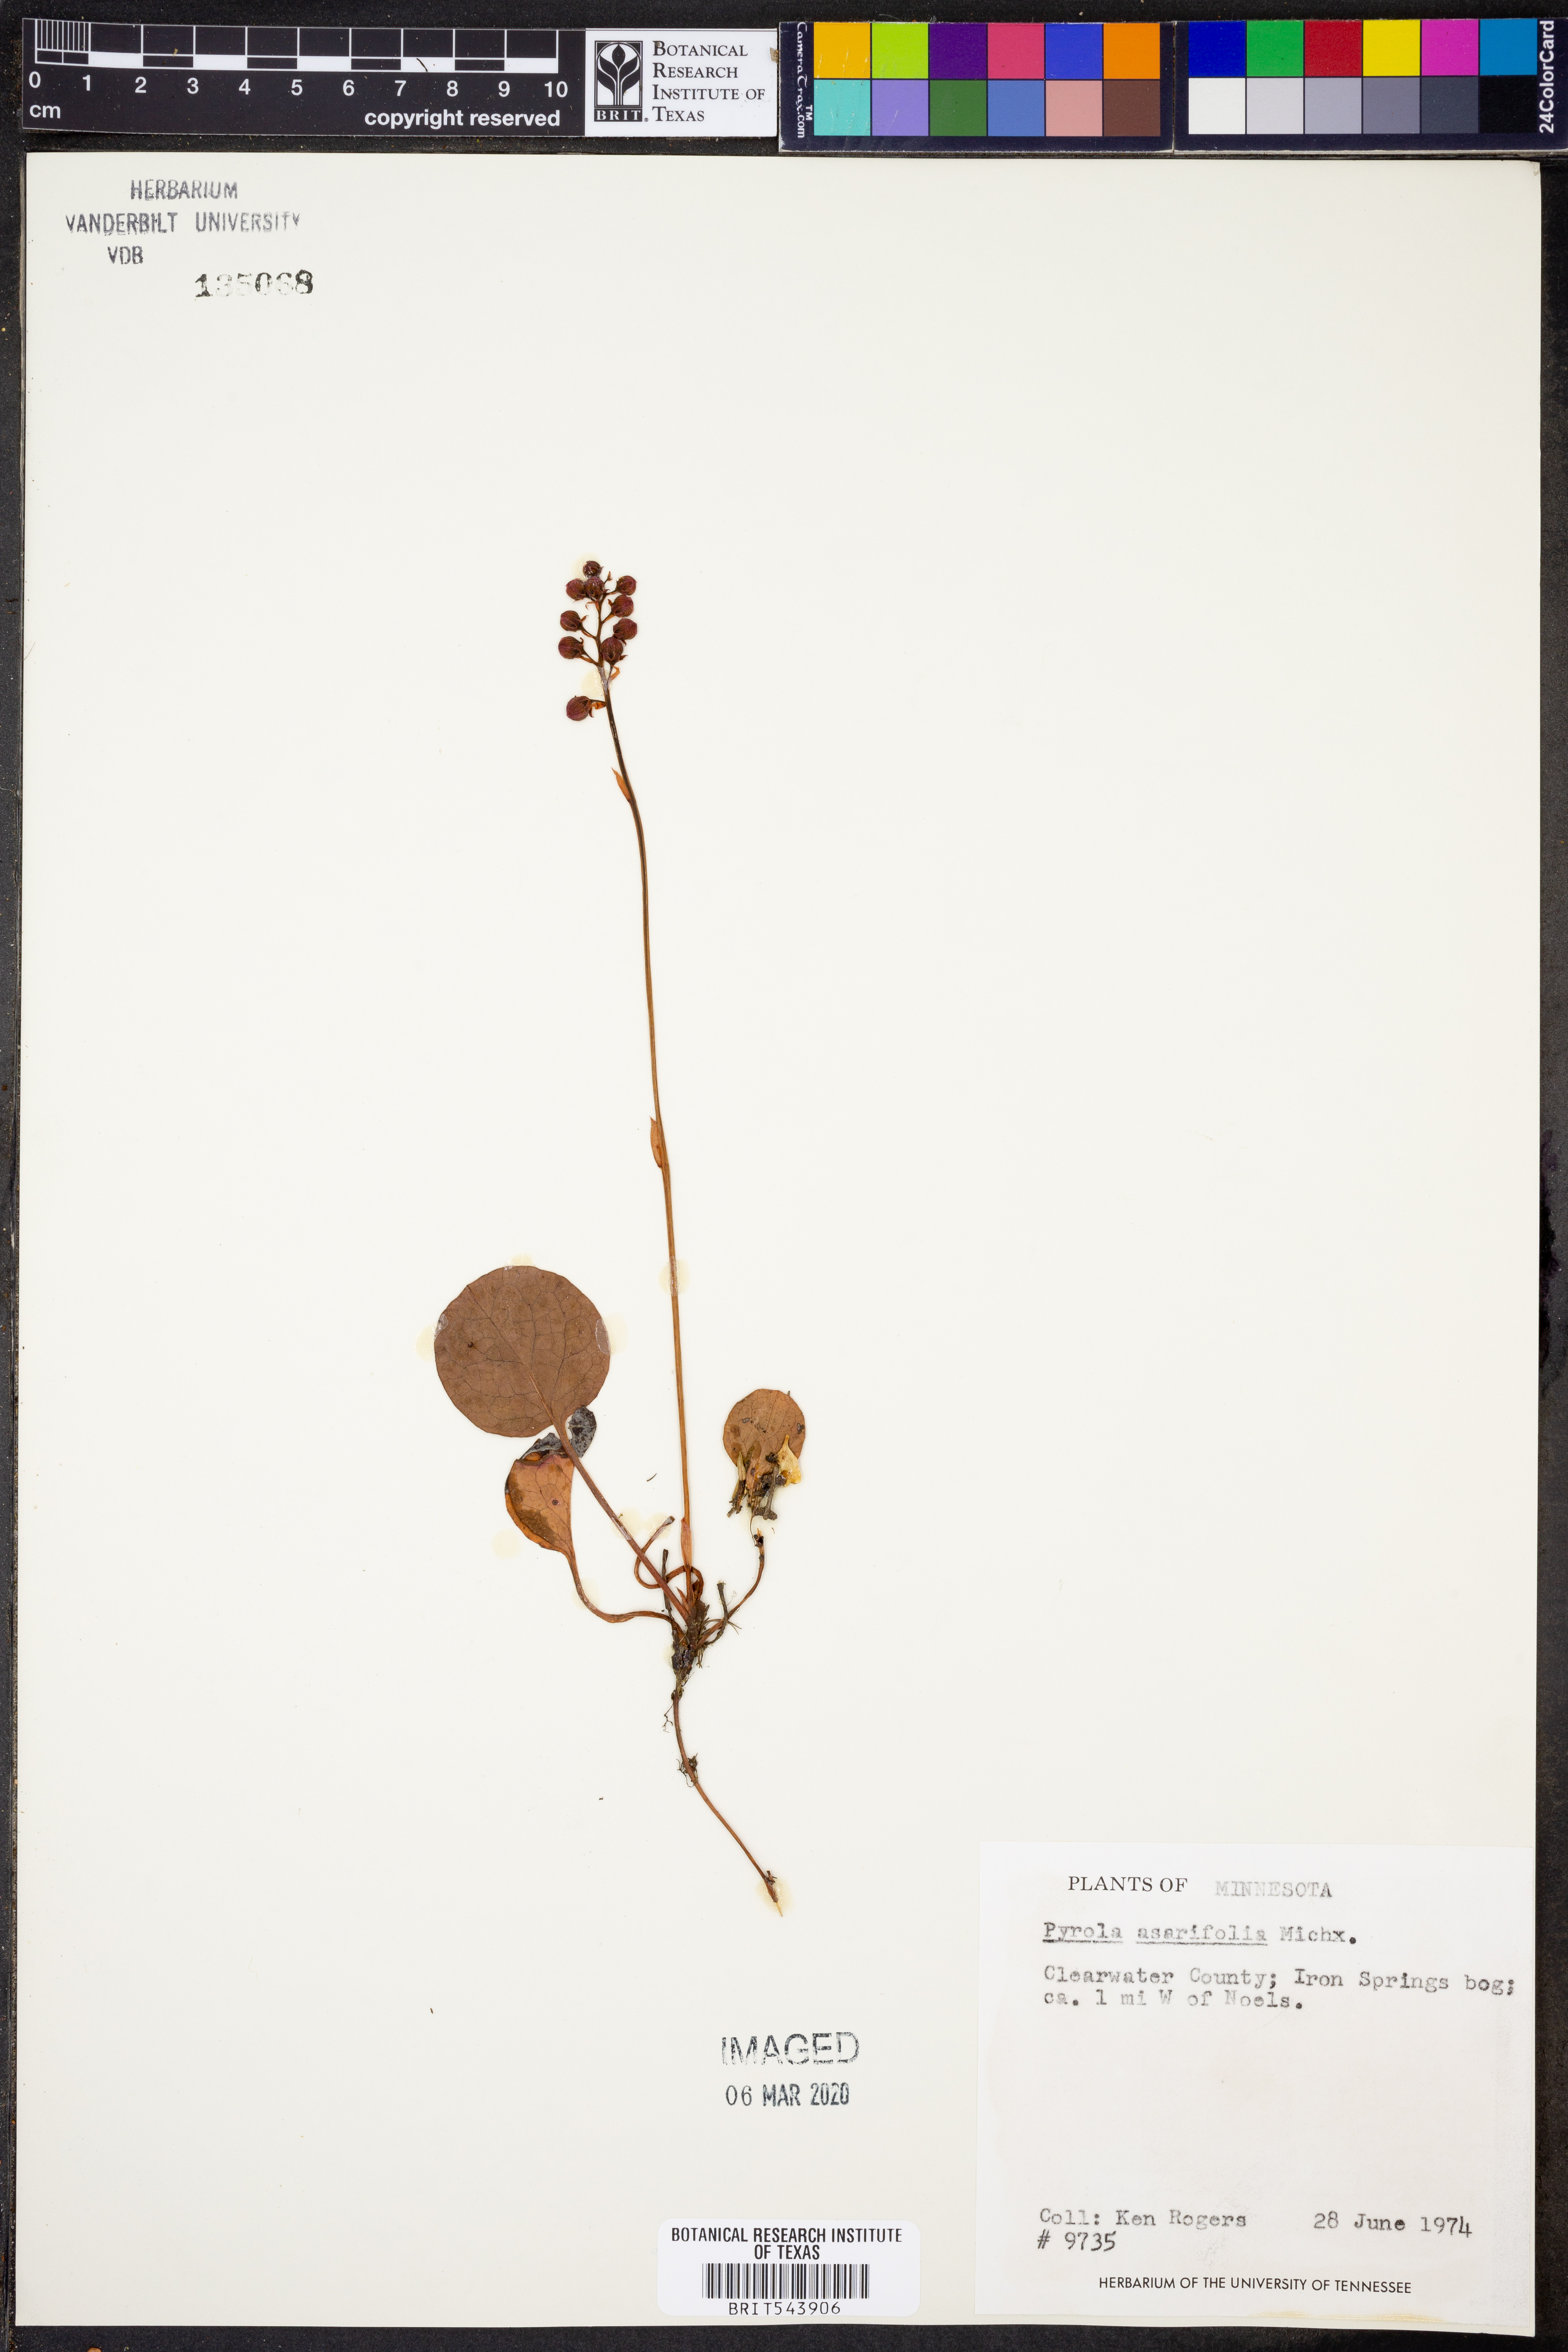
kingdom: Plantae
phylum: Tracheophyta
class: Magnoliopsida
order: Ericales
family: Ericaceae
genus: Pyrola
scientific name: Pyrola asarifolia
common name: Bog wintergreen
